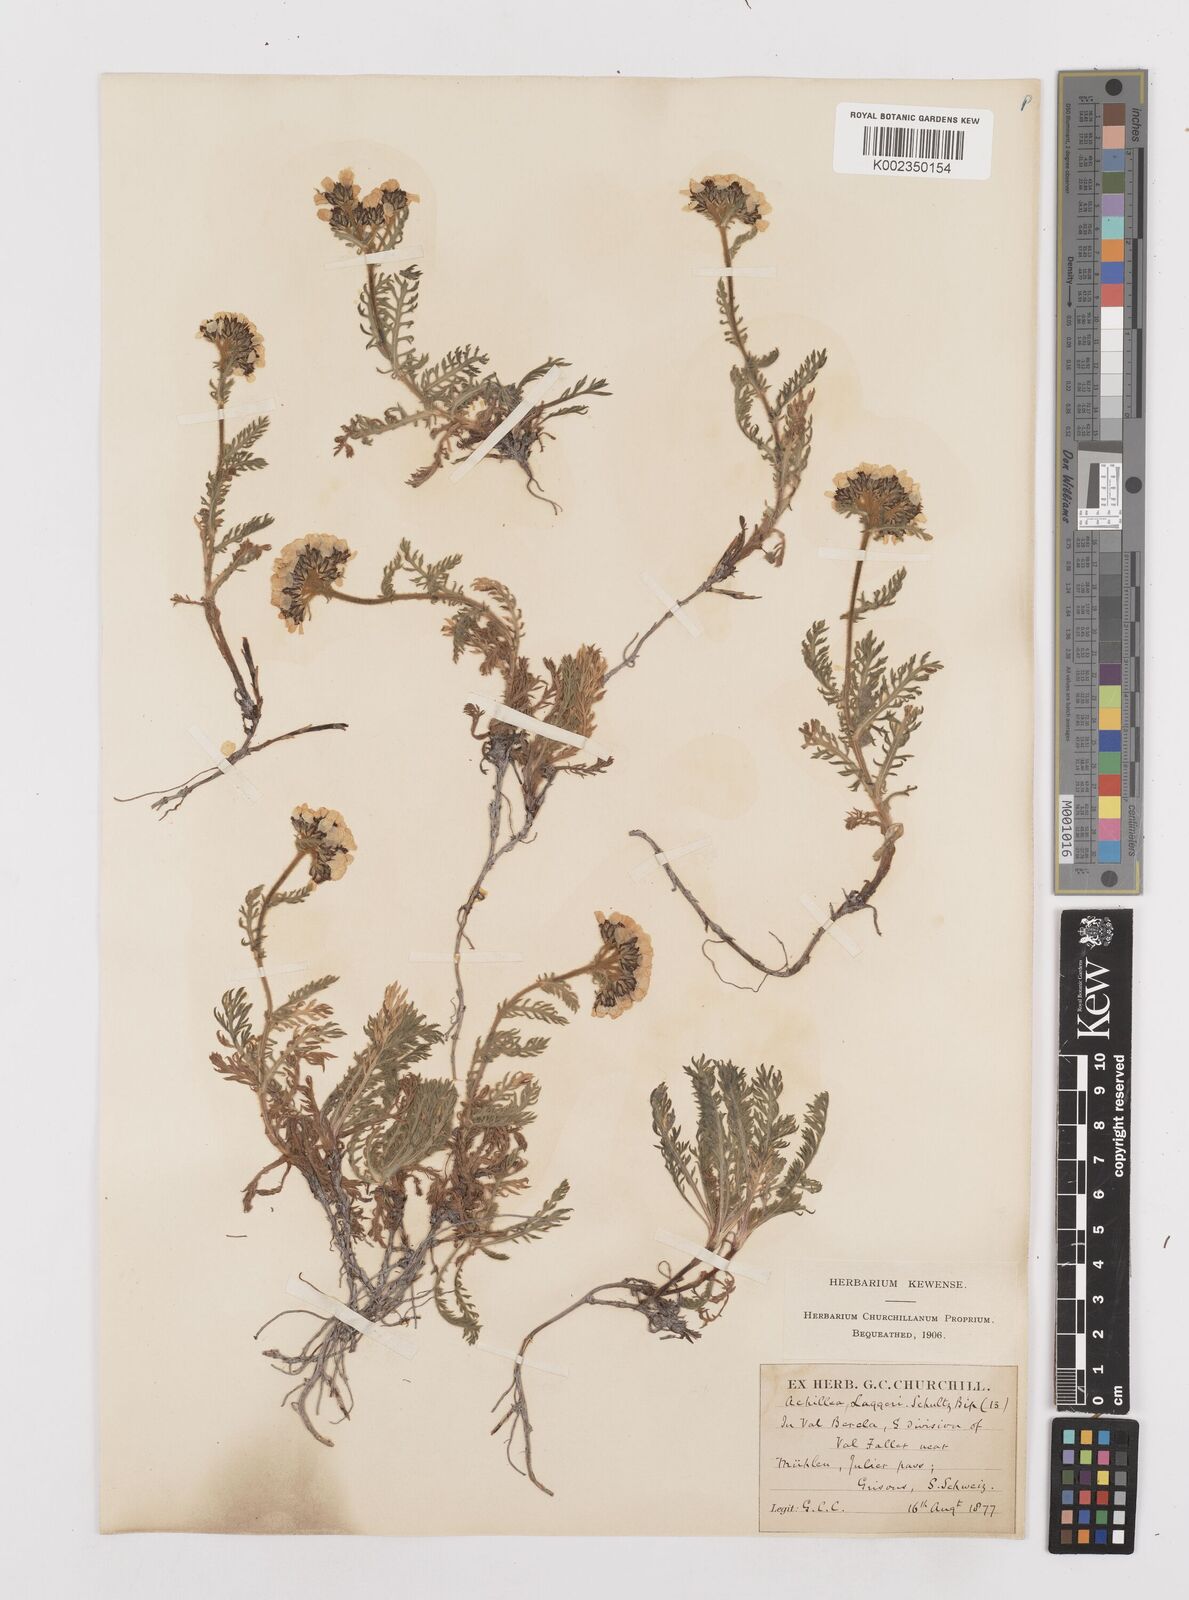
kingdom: Plantae
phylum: Tracheophyta
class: Magnoliopsida
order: Asterales
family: Asteraceae
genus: Achillea
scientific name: Achillea atrata
